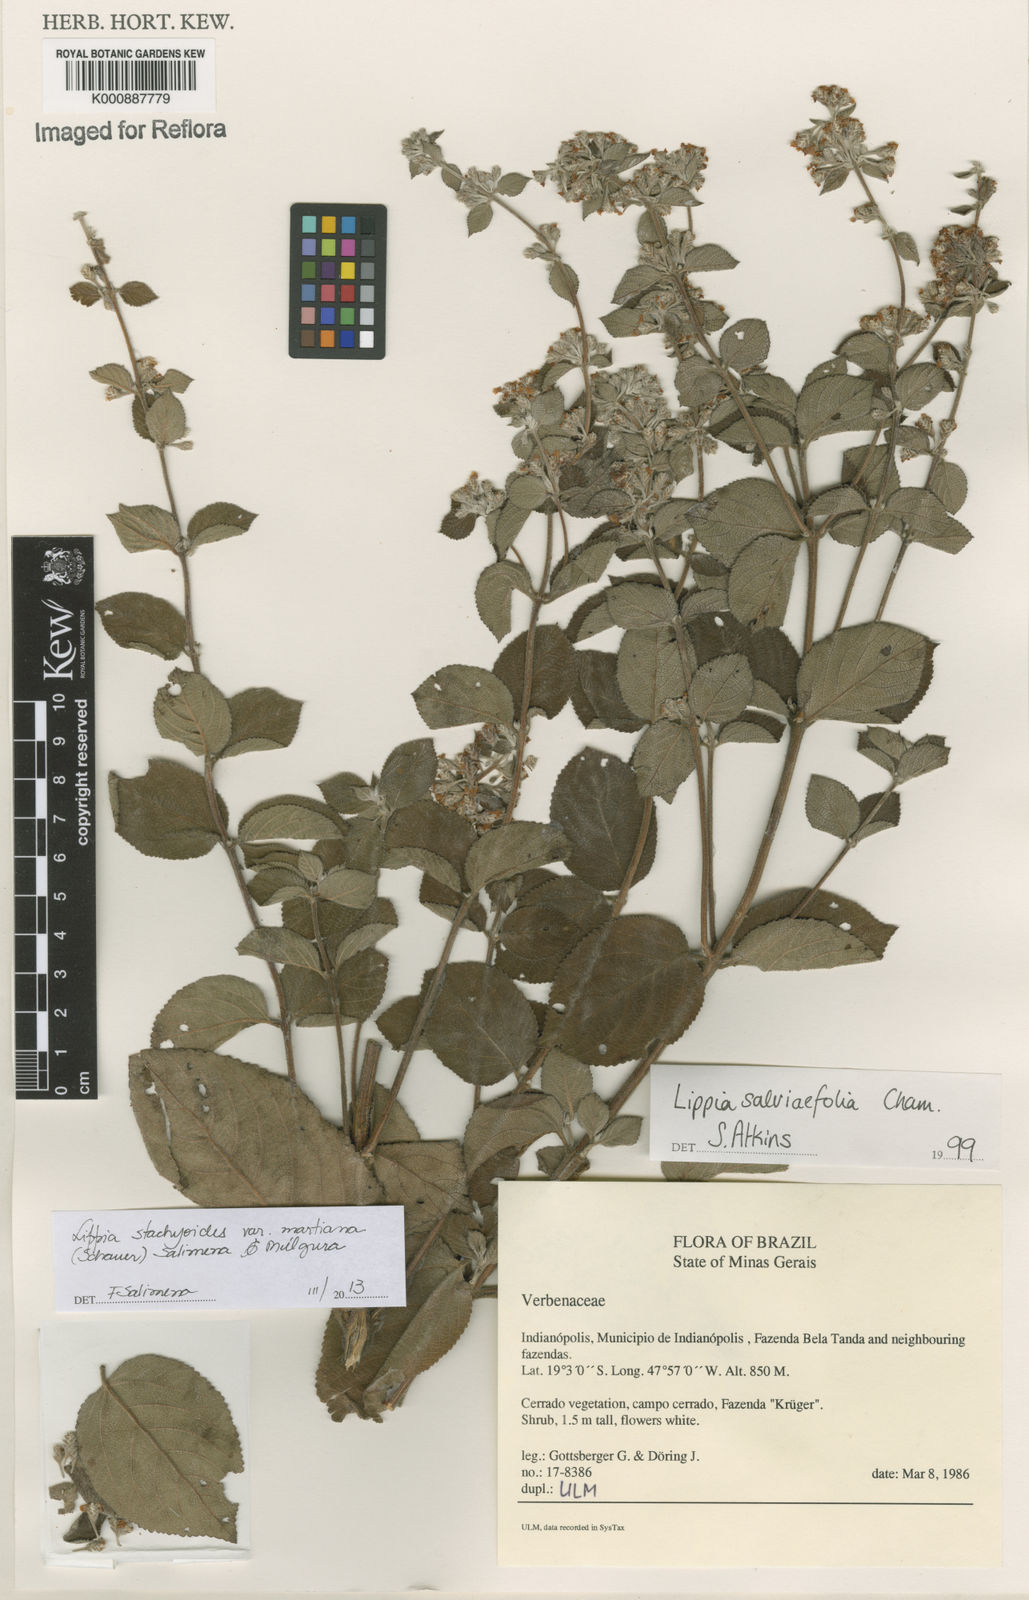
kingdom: Plantae
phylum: Tracheophyta
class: Magnoliopsida
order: Lamiales
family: Verbenaceae
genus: Lippia
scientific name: Lippia stachyoides
